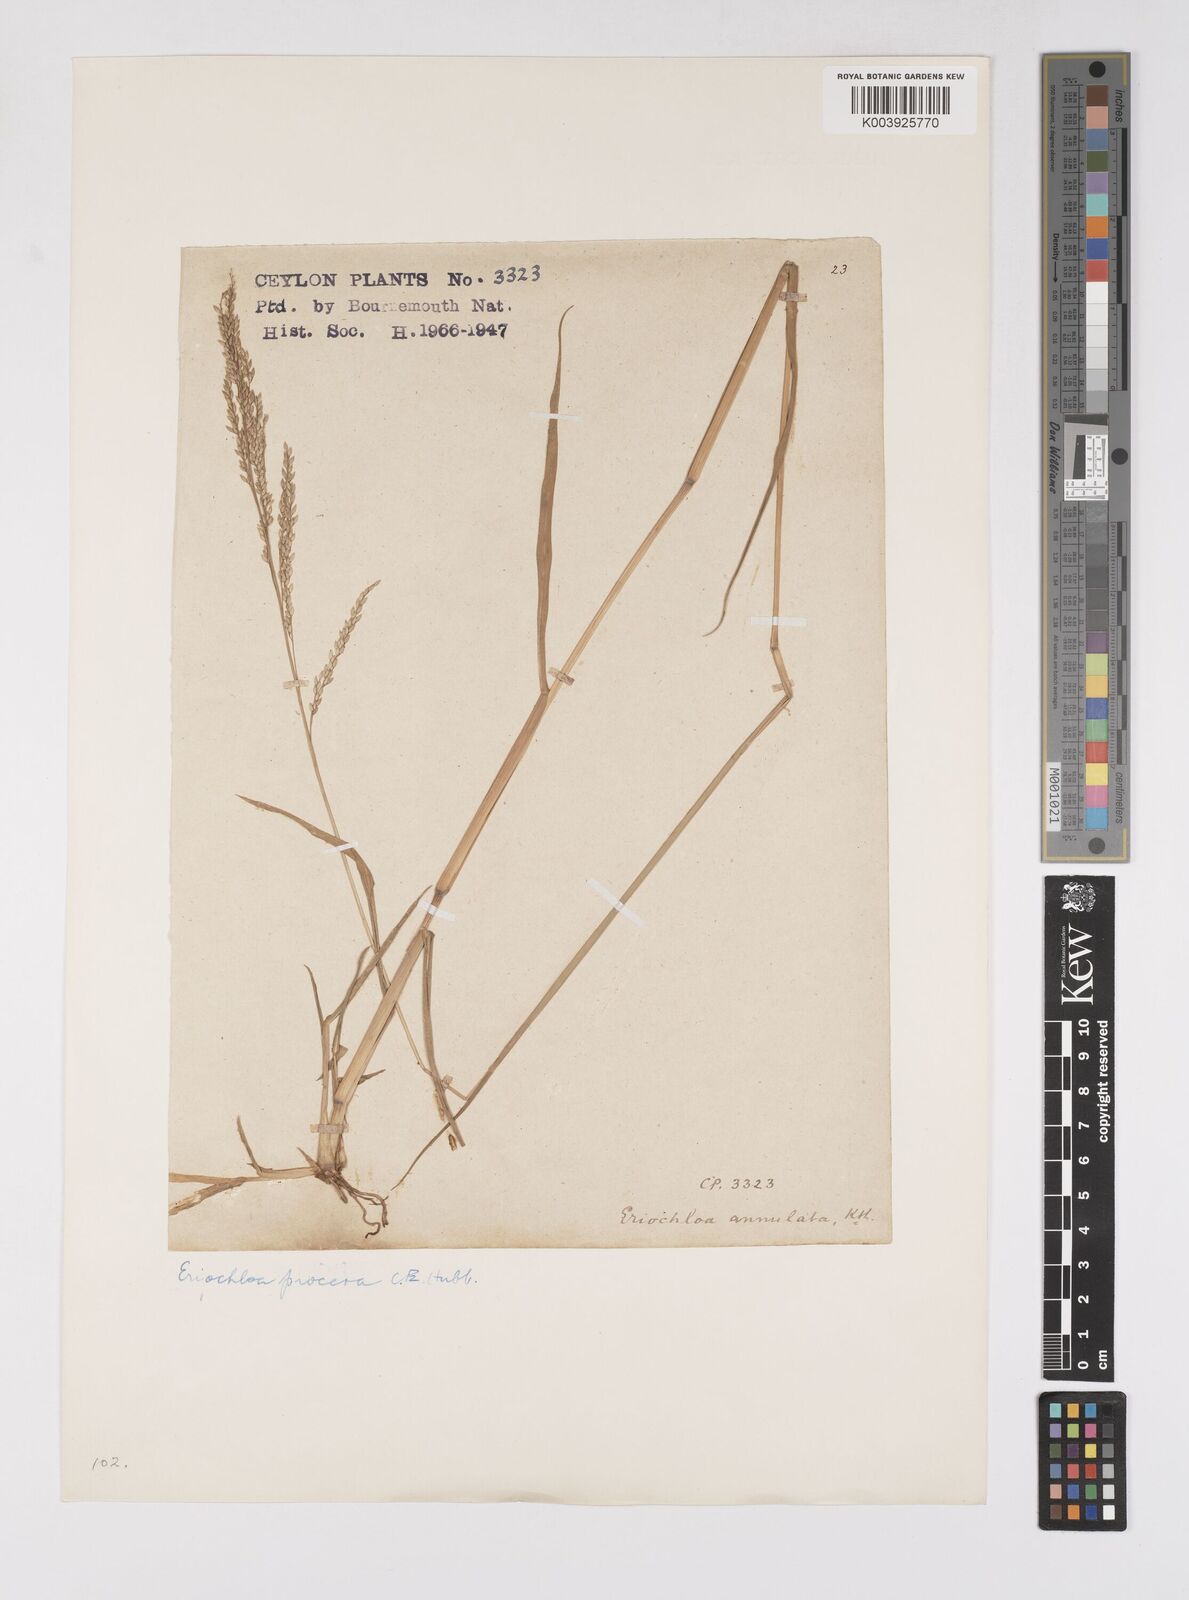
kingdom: Plantae
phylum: Tracheophyta
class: Liliopsida
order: Poales
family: Poaceae
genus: Eriochloa
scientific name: Eriochloa procera
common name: Spring grass
